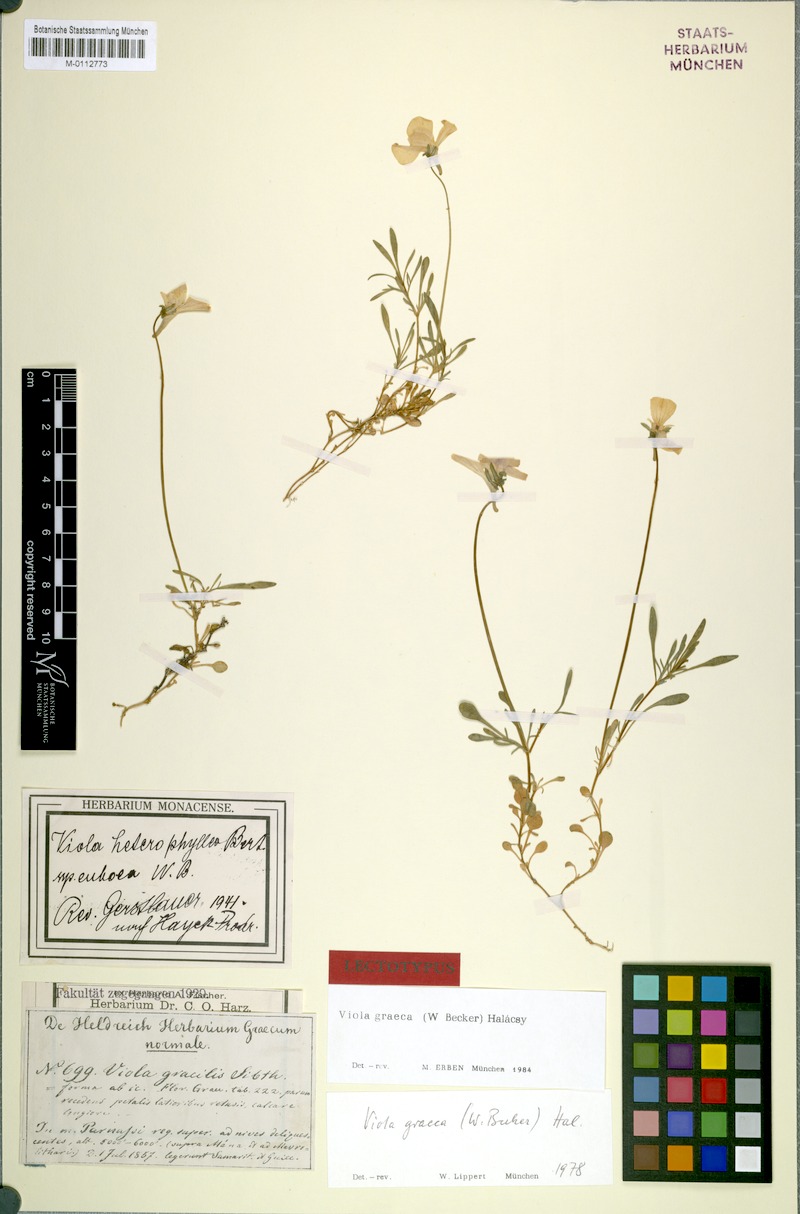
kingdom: Plantae
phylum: Tracheophyta
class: Magnoliopsida
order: Malpighiales
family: Violaceae
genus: Viola
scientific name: Viola graeca
